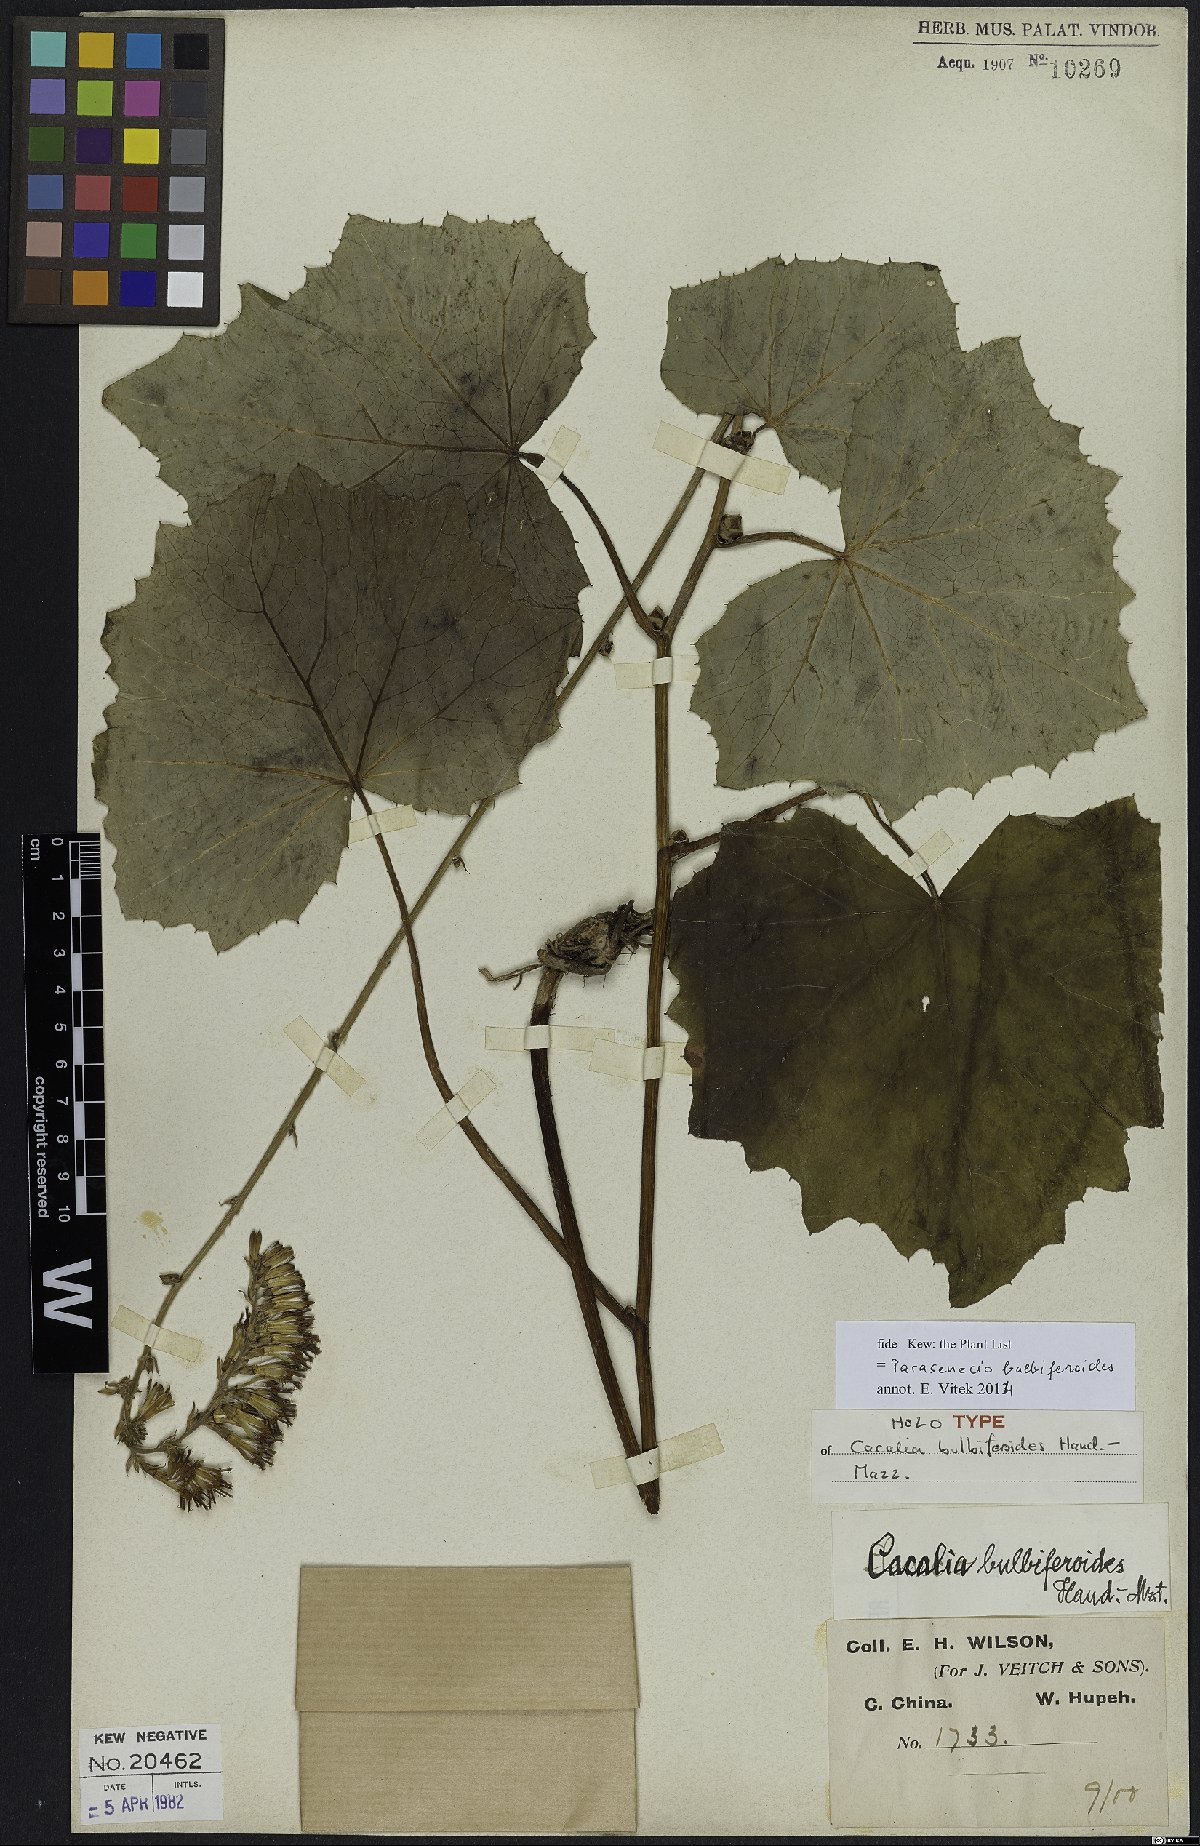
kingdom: Plantae
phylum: Tracheophyta
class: Magnoliopsida
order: Asterales
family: Asteraceae
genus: Parasenecio
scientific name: Parasenecio bulbiferoides
